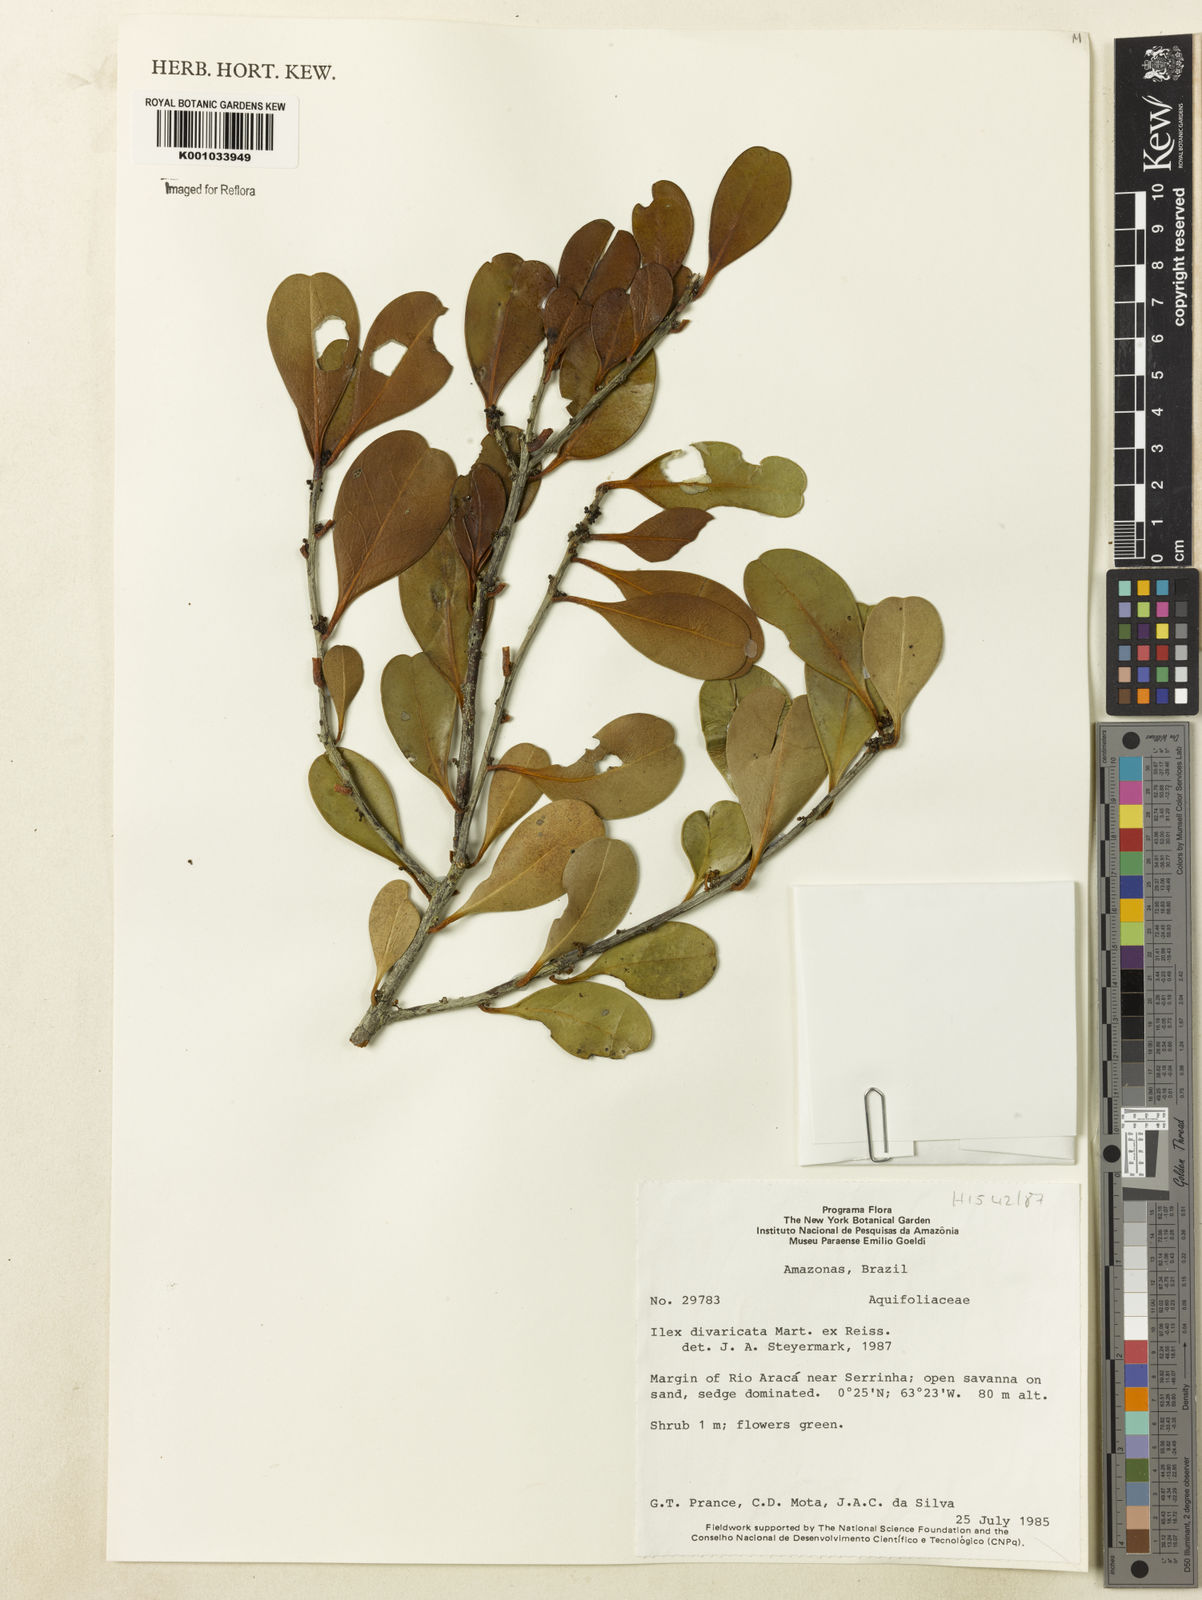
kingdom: Plantae
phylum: Tracheophyta
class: Magnoliopsida
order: Aquifoliales
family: Aquifoliaceae
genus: Ilex
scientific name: Ilex divaricata
